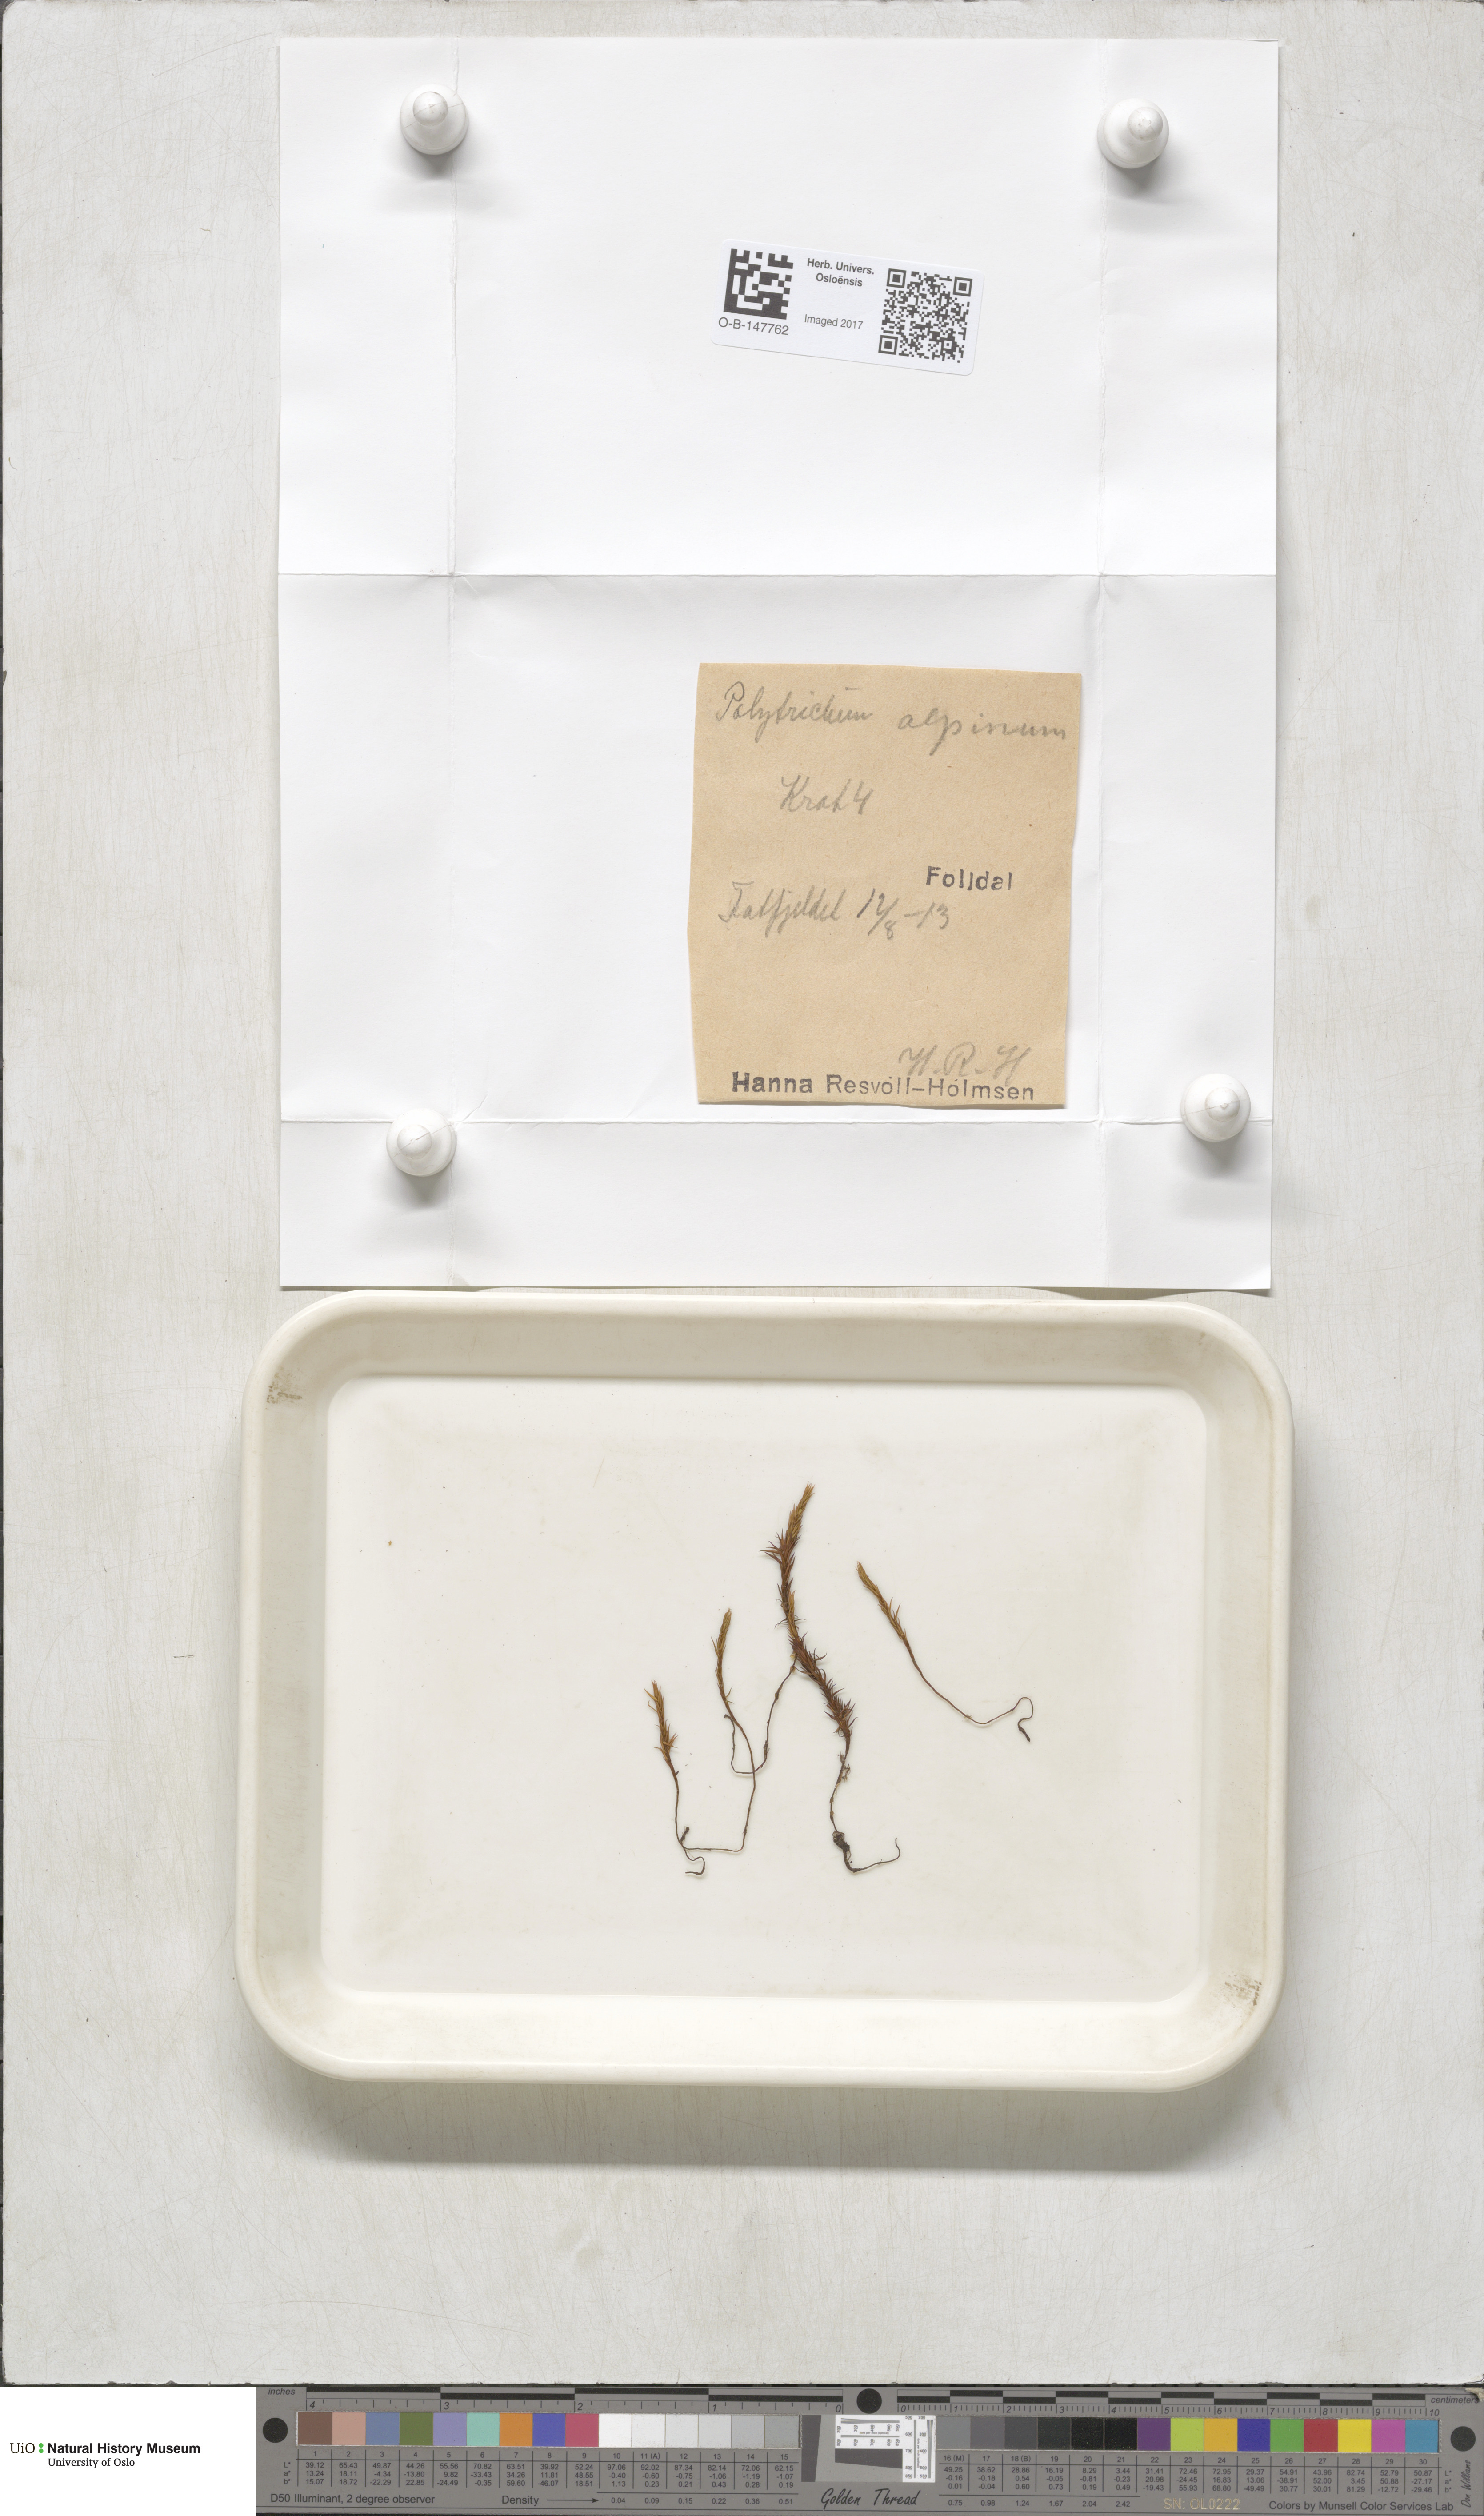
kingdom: Plantae
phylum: Bryophyta
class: Polytrichopsida
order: Polytrichales
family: Polytrichaceae
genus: Polytrichastrum
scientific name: Polytrichastrum alpinum
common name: Alpine haircap
